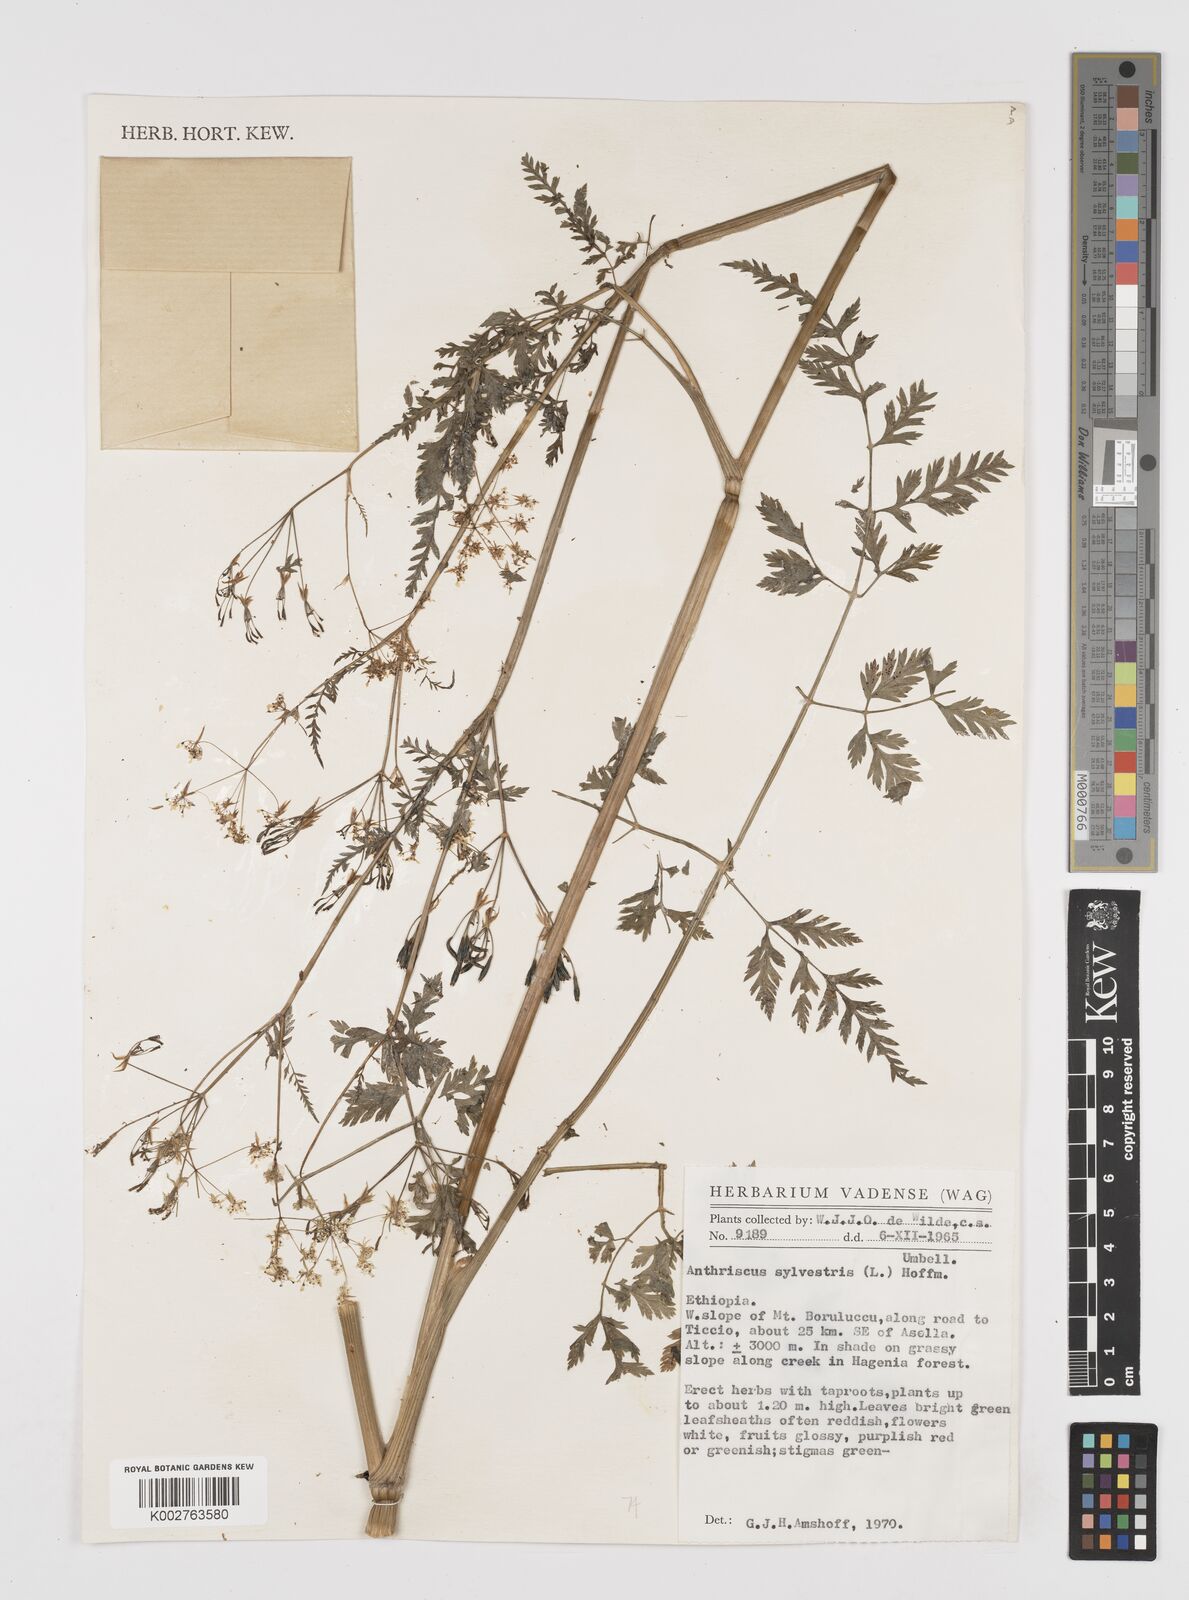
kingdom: Plantae
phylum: Tracheophyta
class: Magnoliopsida
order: Apiales
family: Apiaceae
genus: Anthriscus
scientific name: Anthriscus sylvestris
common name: Cow parsley
